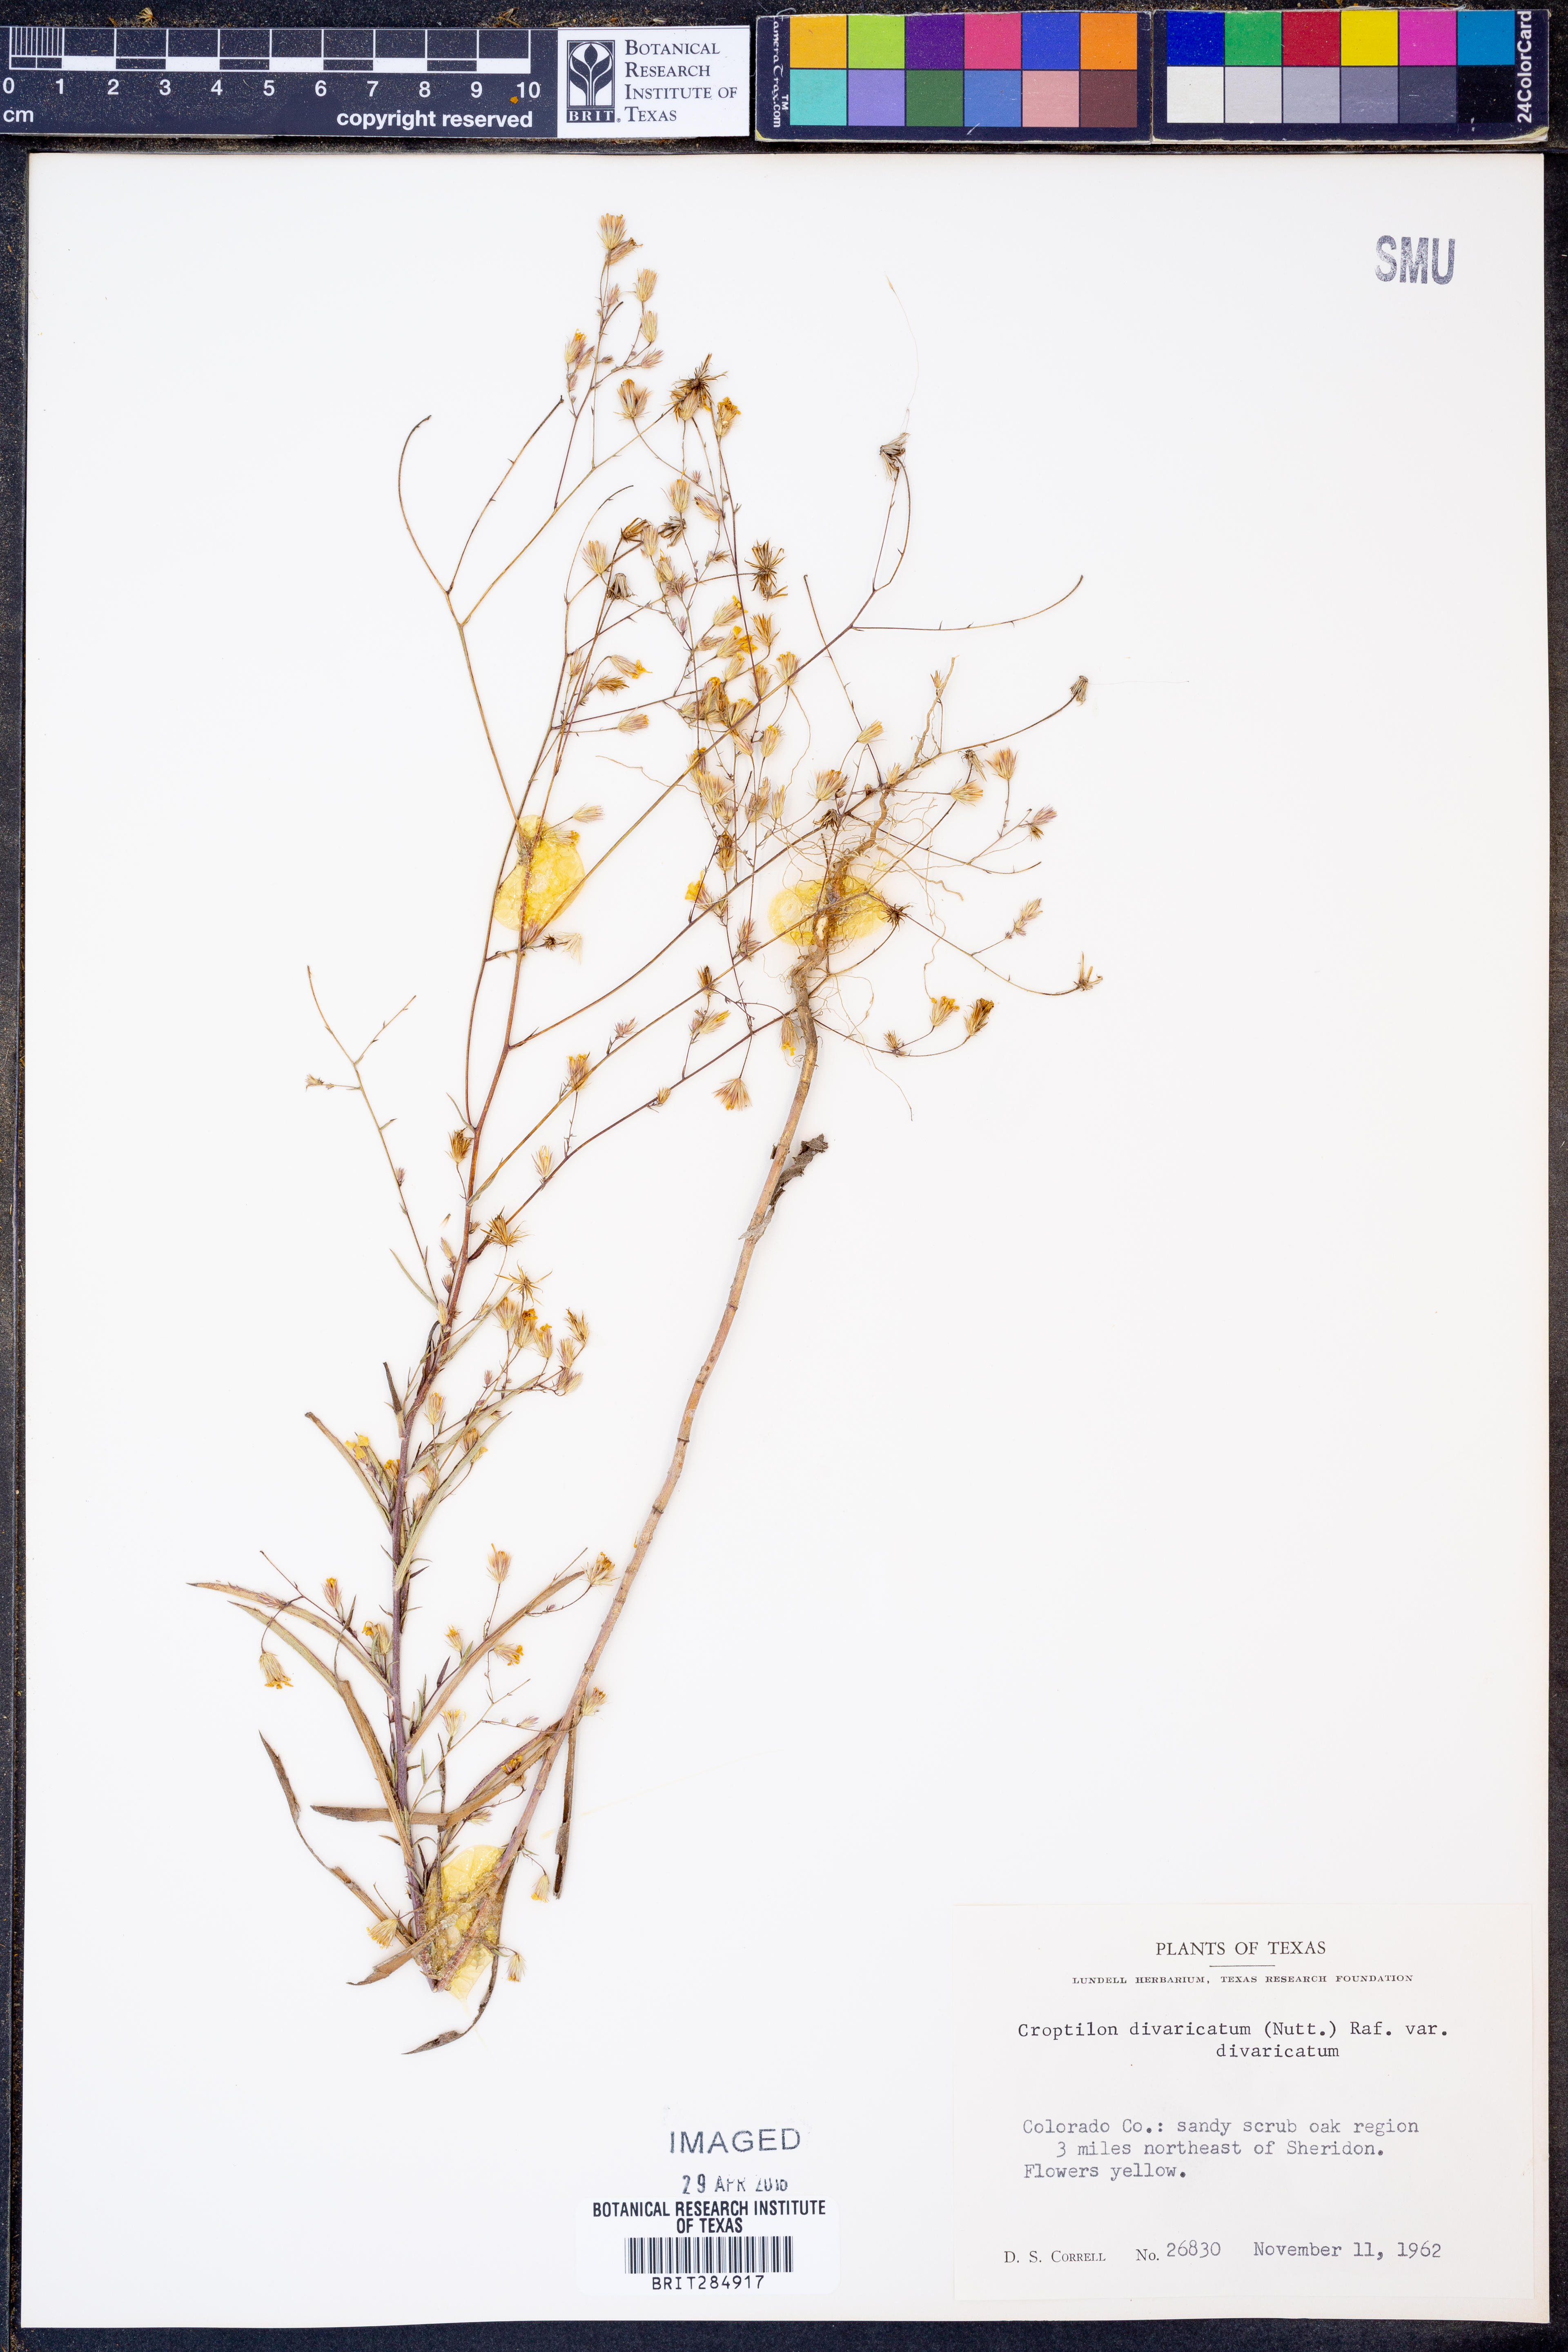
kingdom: Plantae
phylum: Tracheophyta
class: Magnoliopsida
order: Asterales
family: Asteraceae
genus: Croptilon
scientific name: Croptilon divaricatum
